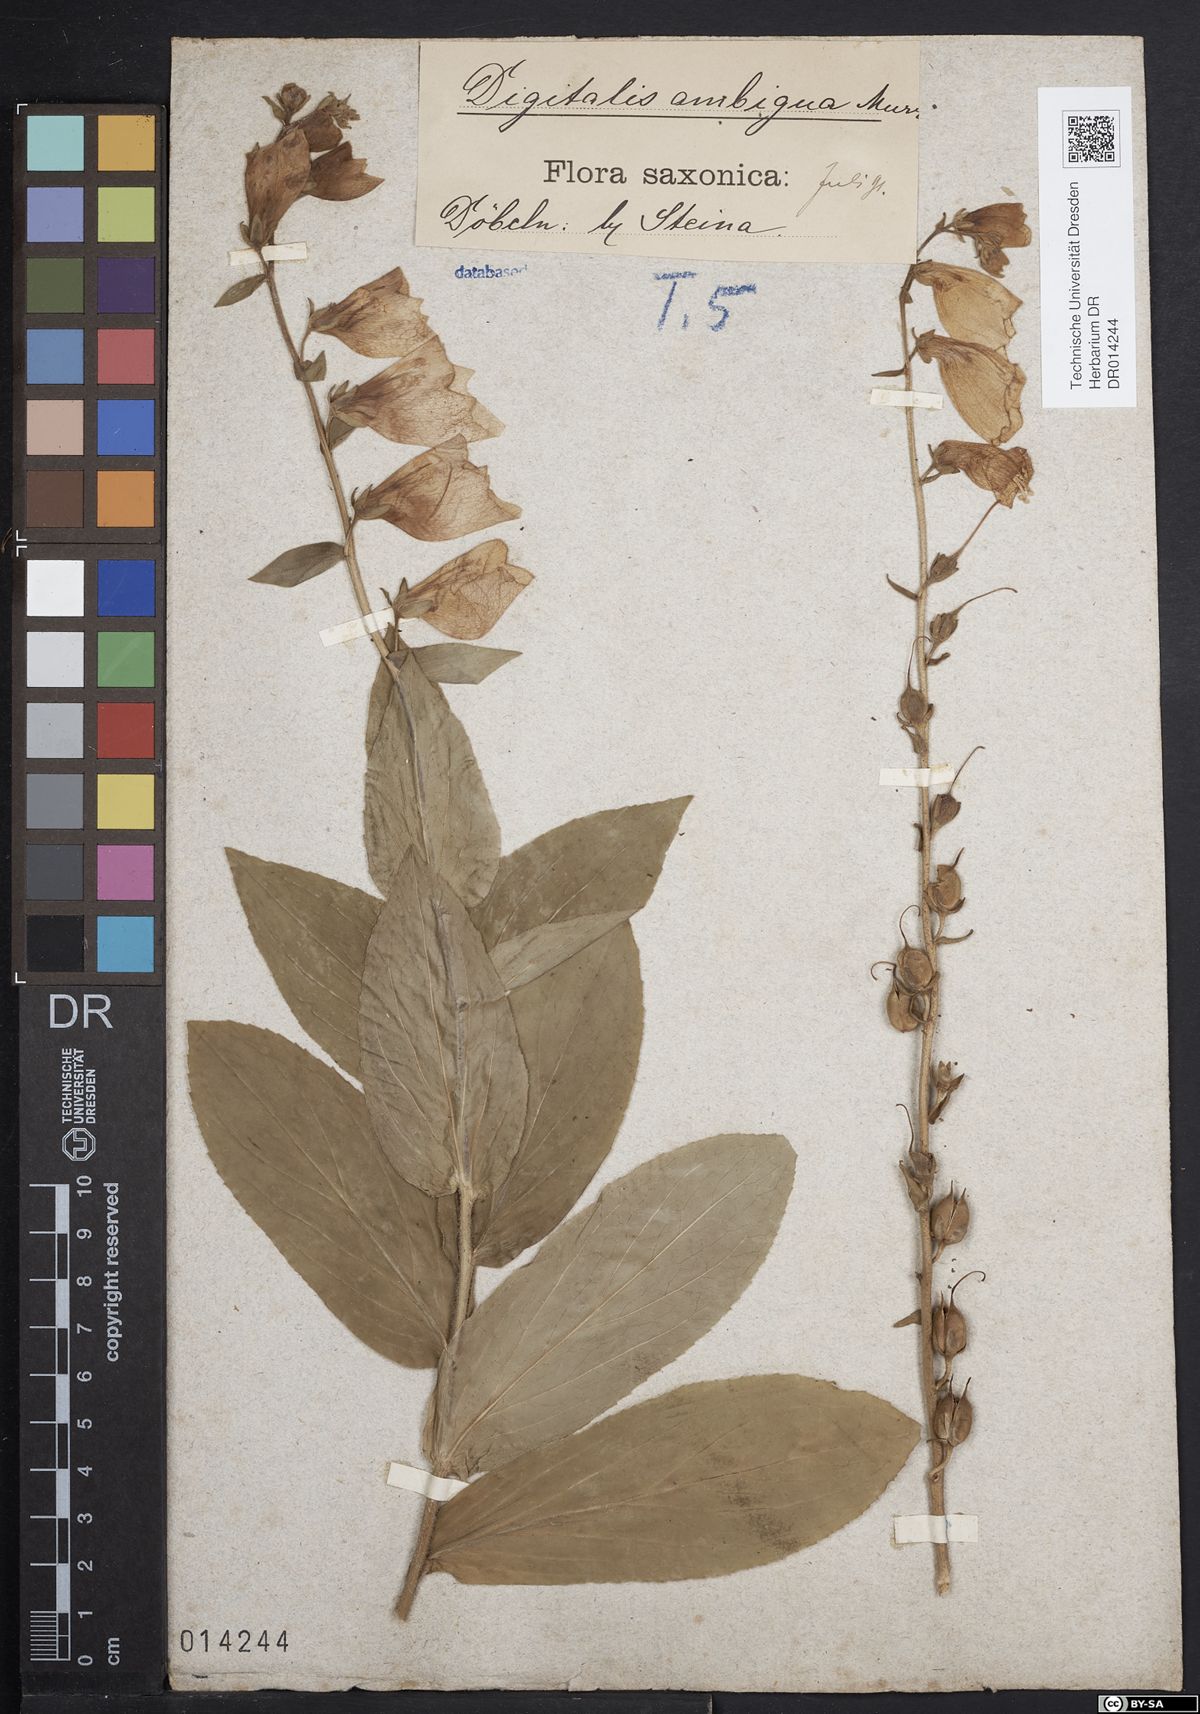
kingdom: Plantae
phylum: Tracheophyta
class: Magnoliopsida
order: Lamiales
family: Plantaginaceae
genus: Digitalis
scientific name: Digitalis grandiflora
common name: Yellow foxglove
